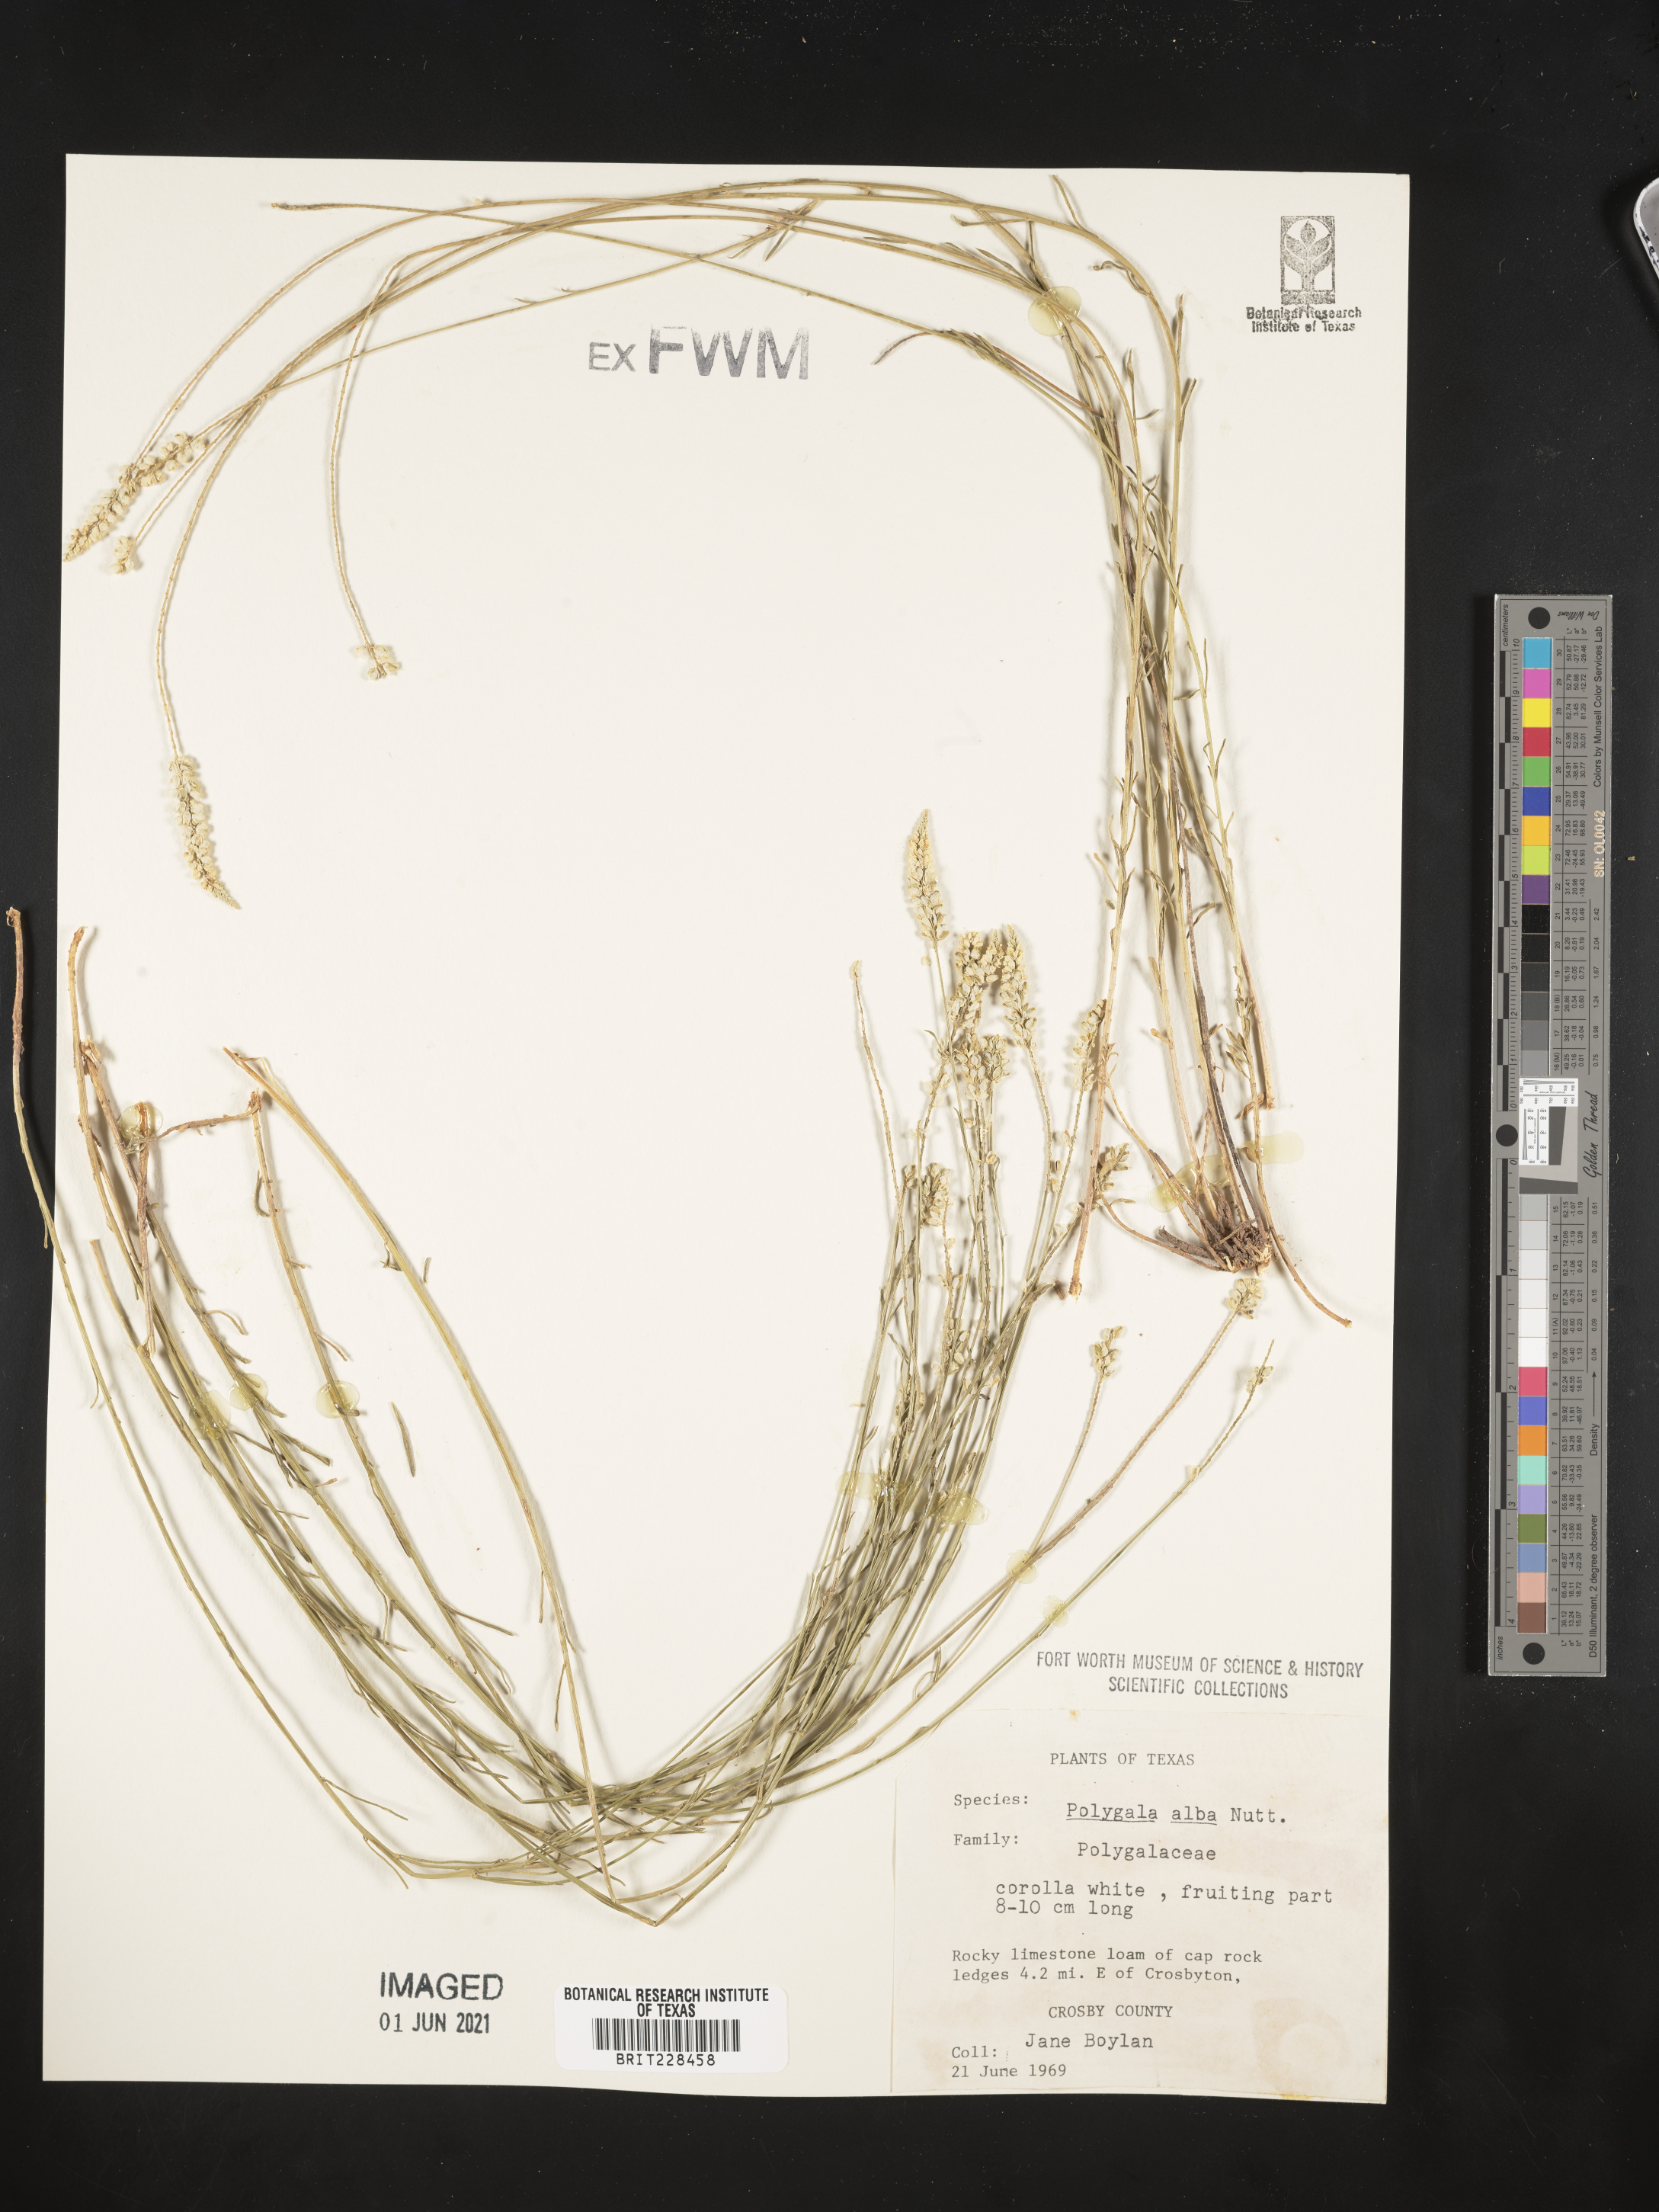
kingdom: Plantae
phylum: Tracheophyta
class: Magnoliopsida
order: Fabales
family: Polygalaceae
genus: Polygala
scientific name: Polygala alba
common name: White milkwort
